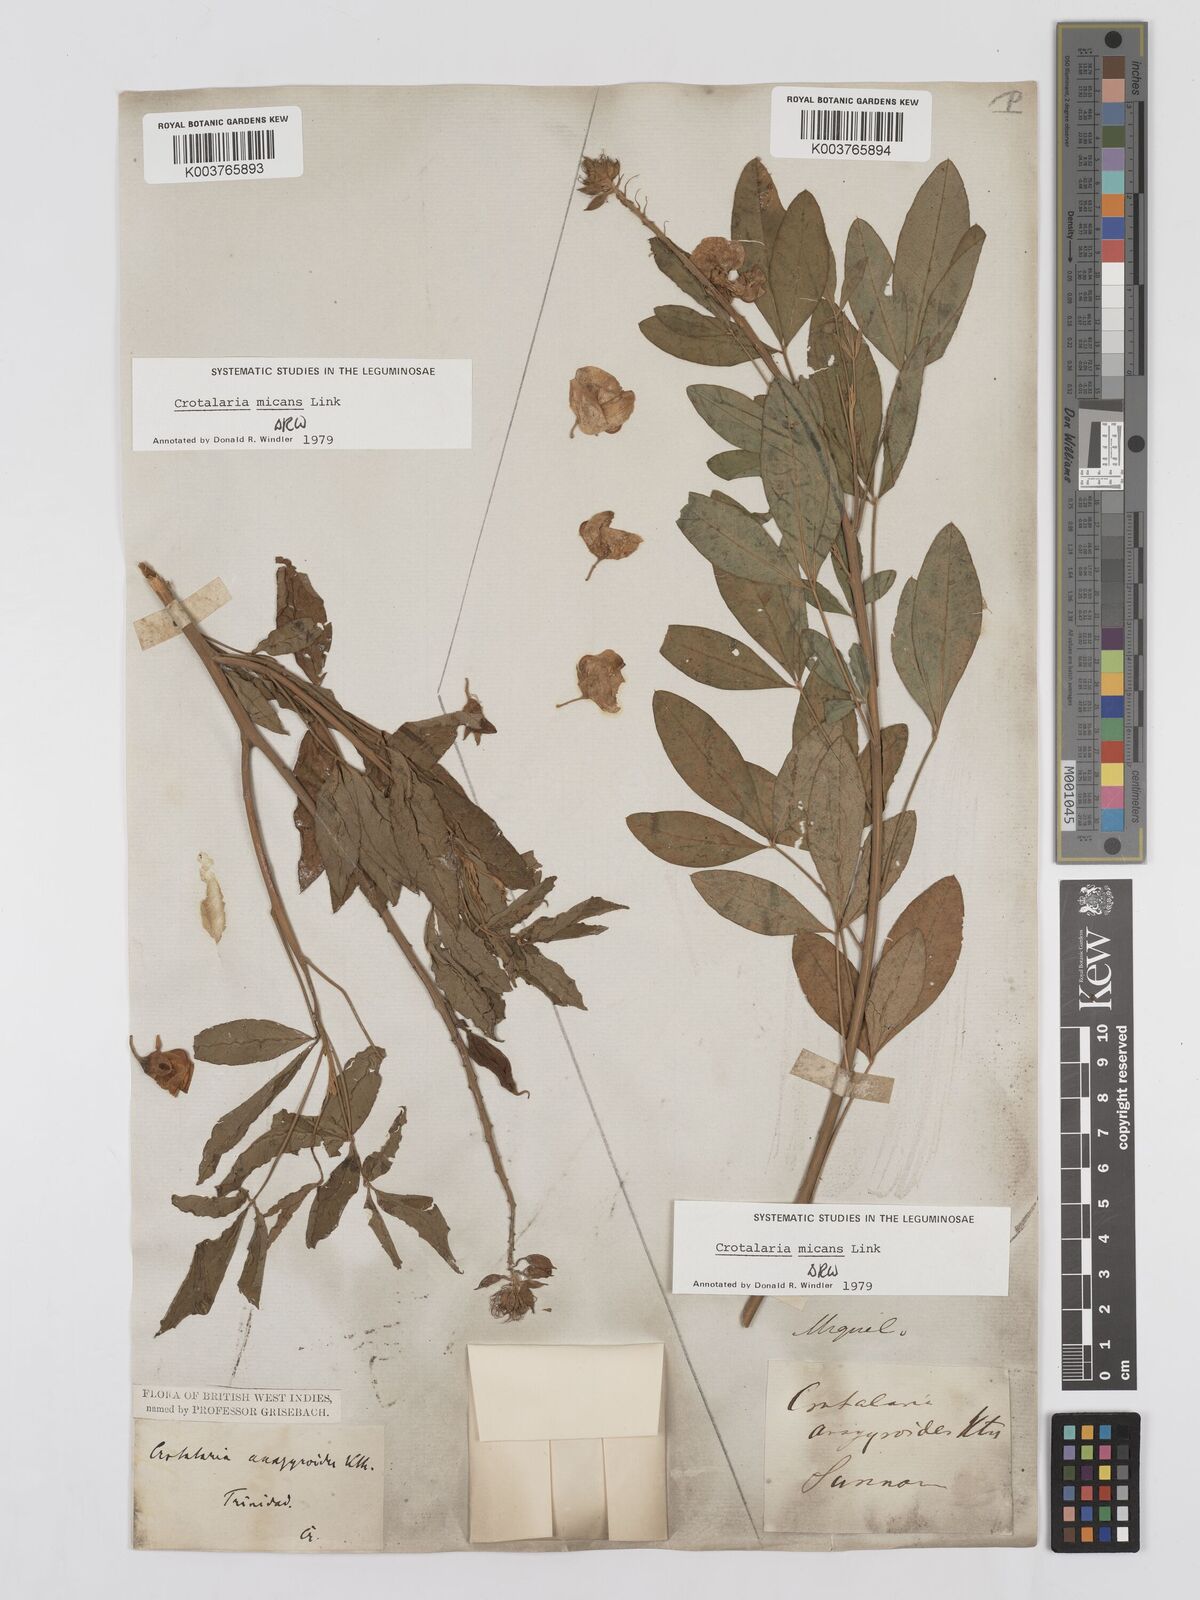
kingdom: Plantae
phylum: Tracheophyta
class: Magnoliopsida
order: Fabales
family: Fabaceae
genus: Crotalaria
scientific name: Crotalaria micans
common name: Caracas rattlebox
